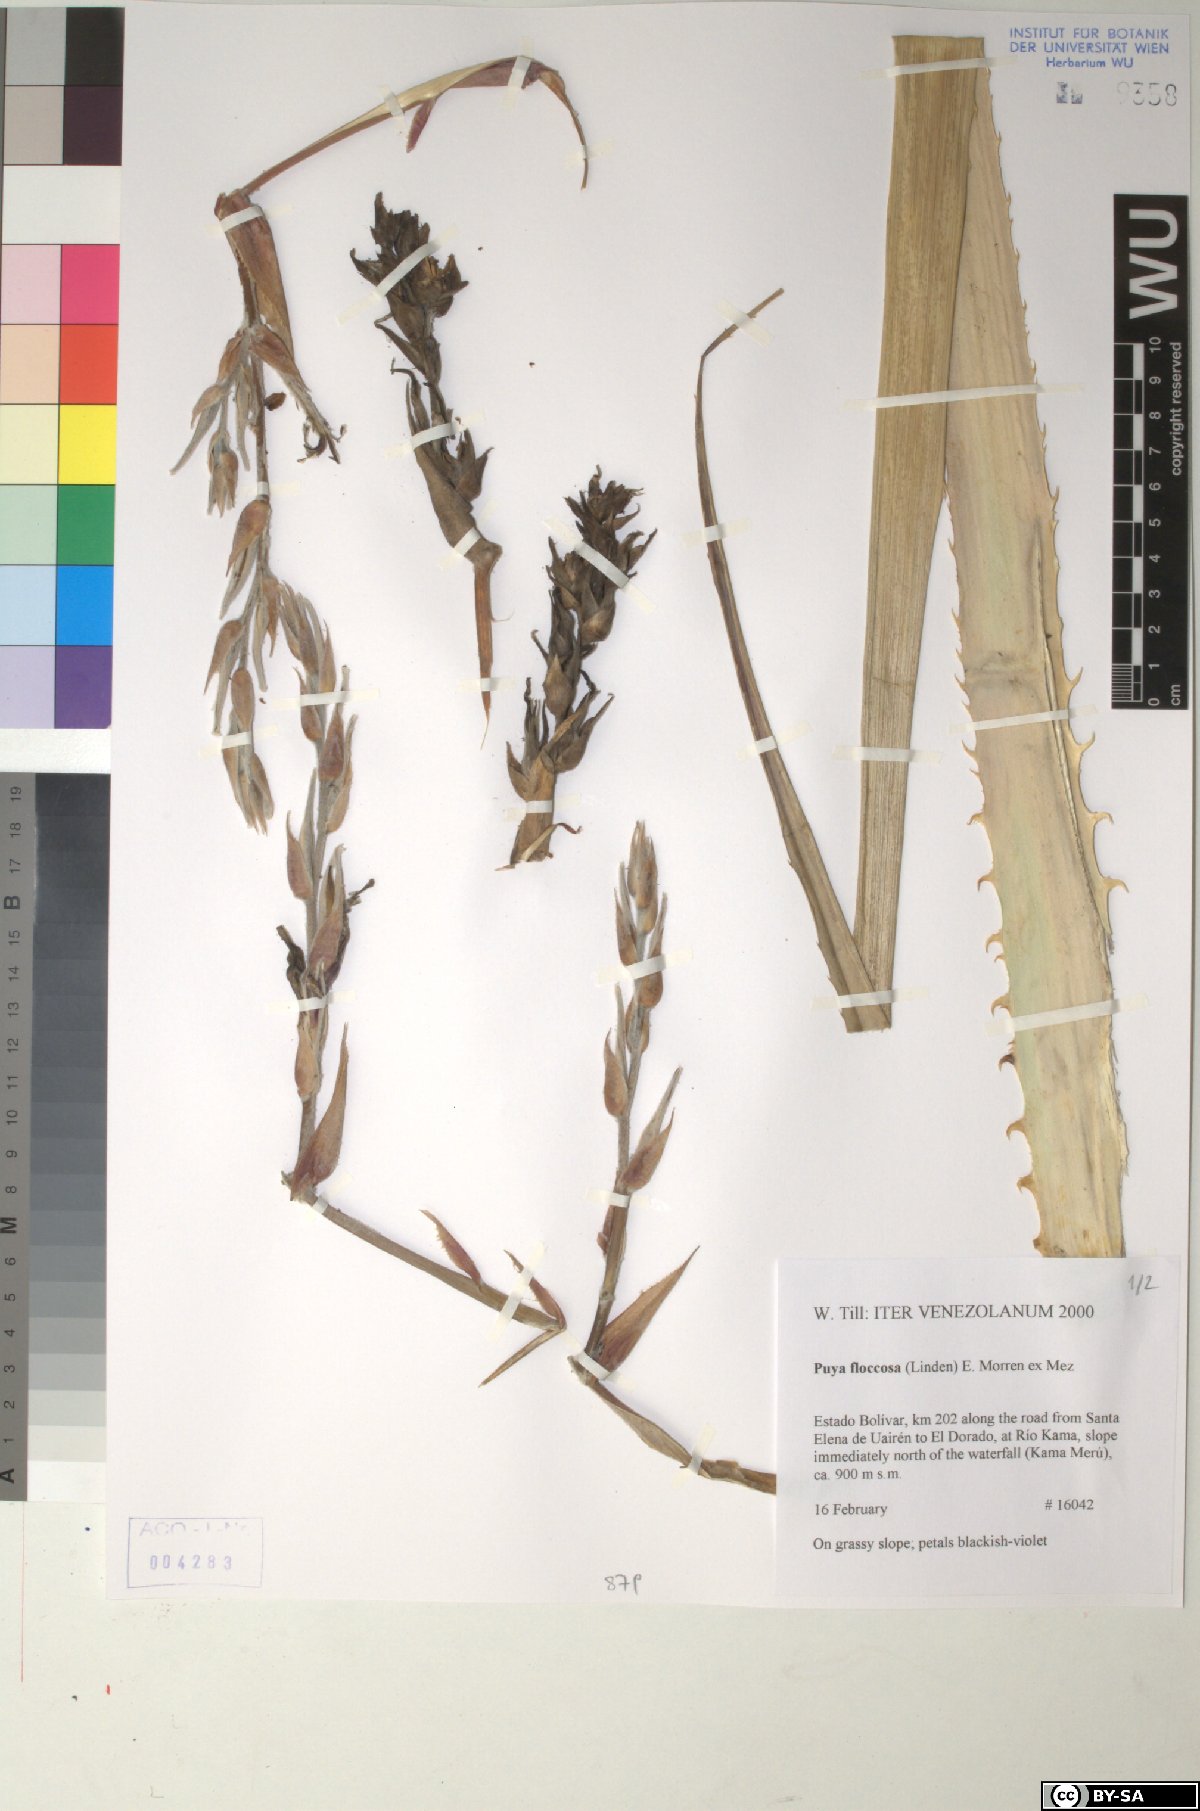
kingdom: Plantae
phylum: Tracheophyta
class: Liliopsida
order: Poales
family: Bromeliaceae
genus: Puya
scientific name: Puya floccosa
